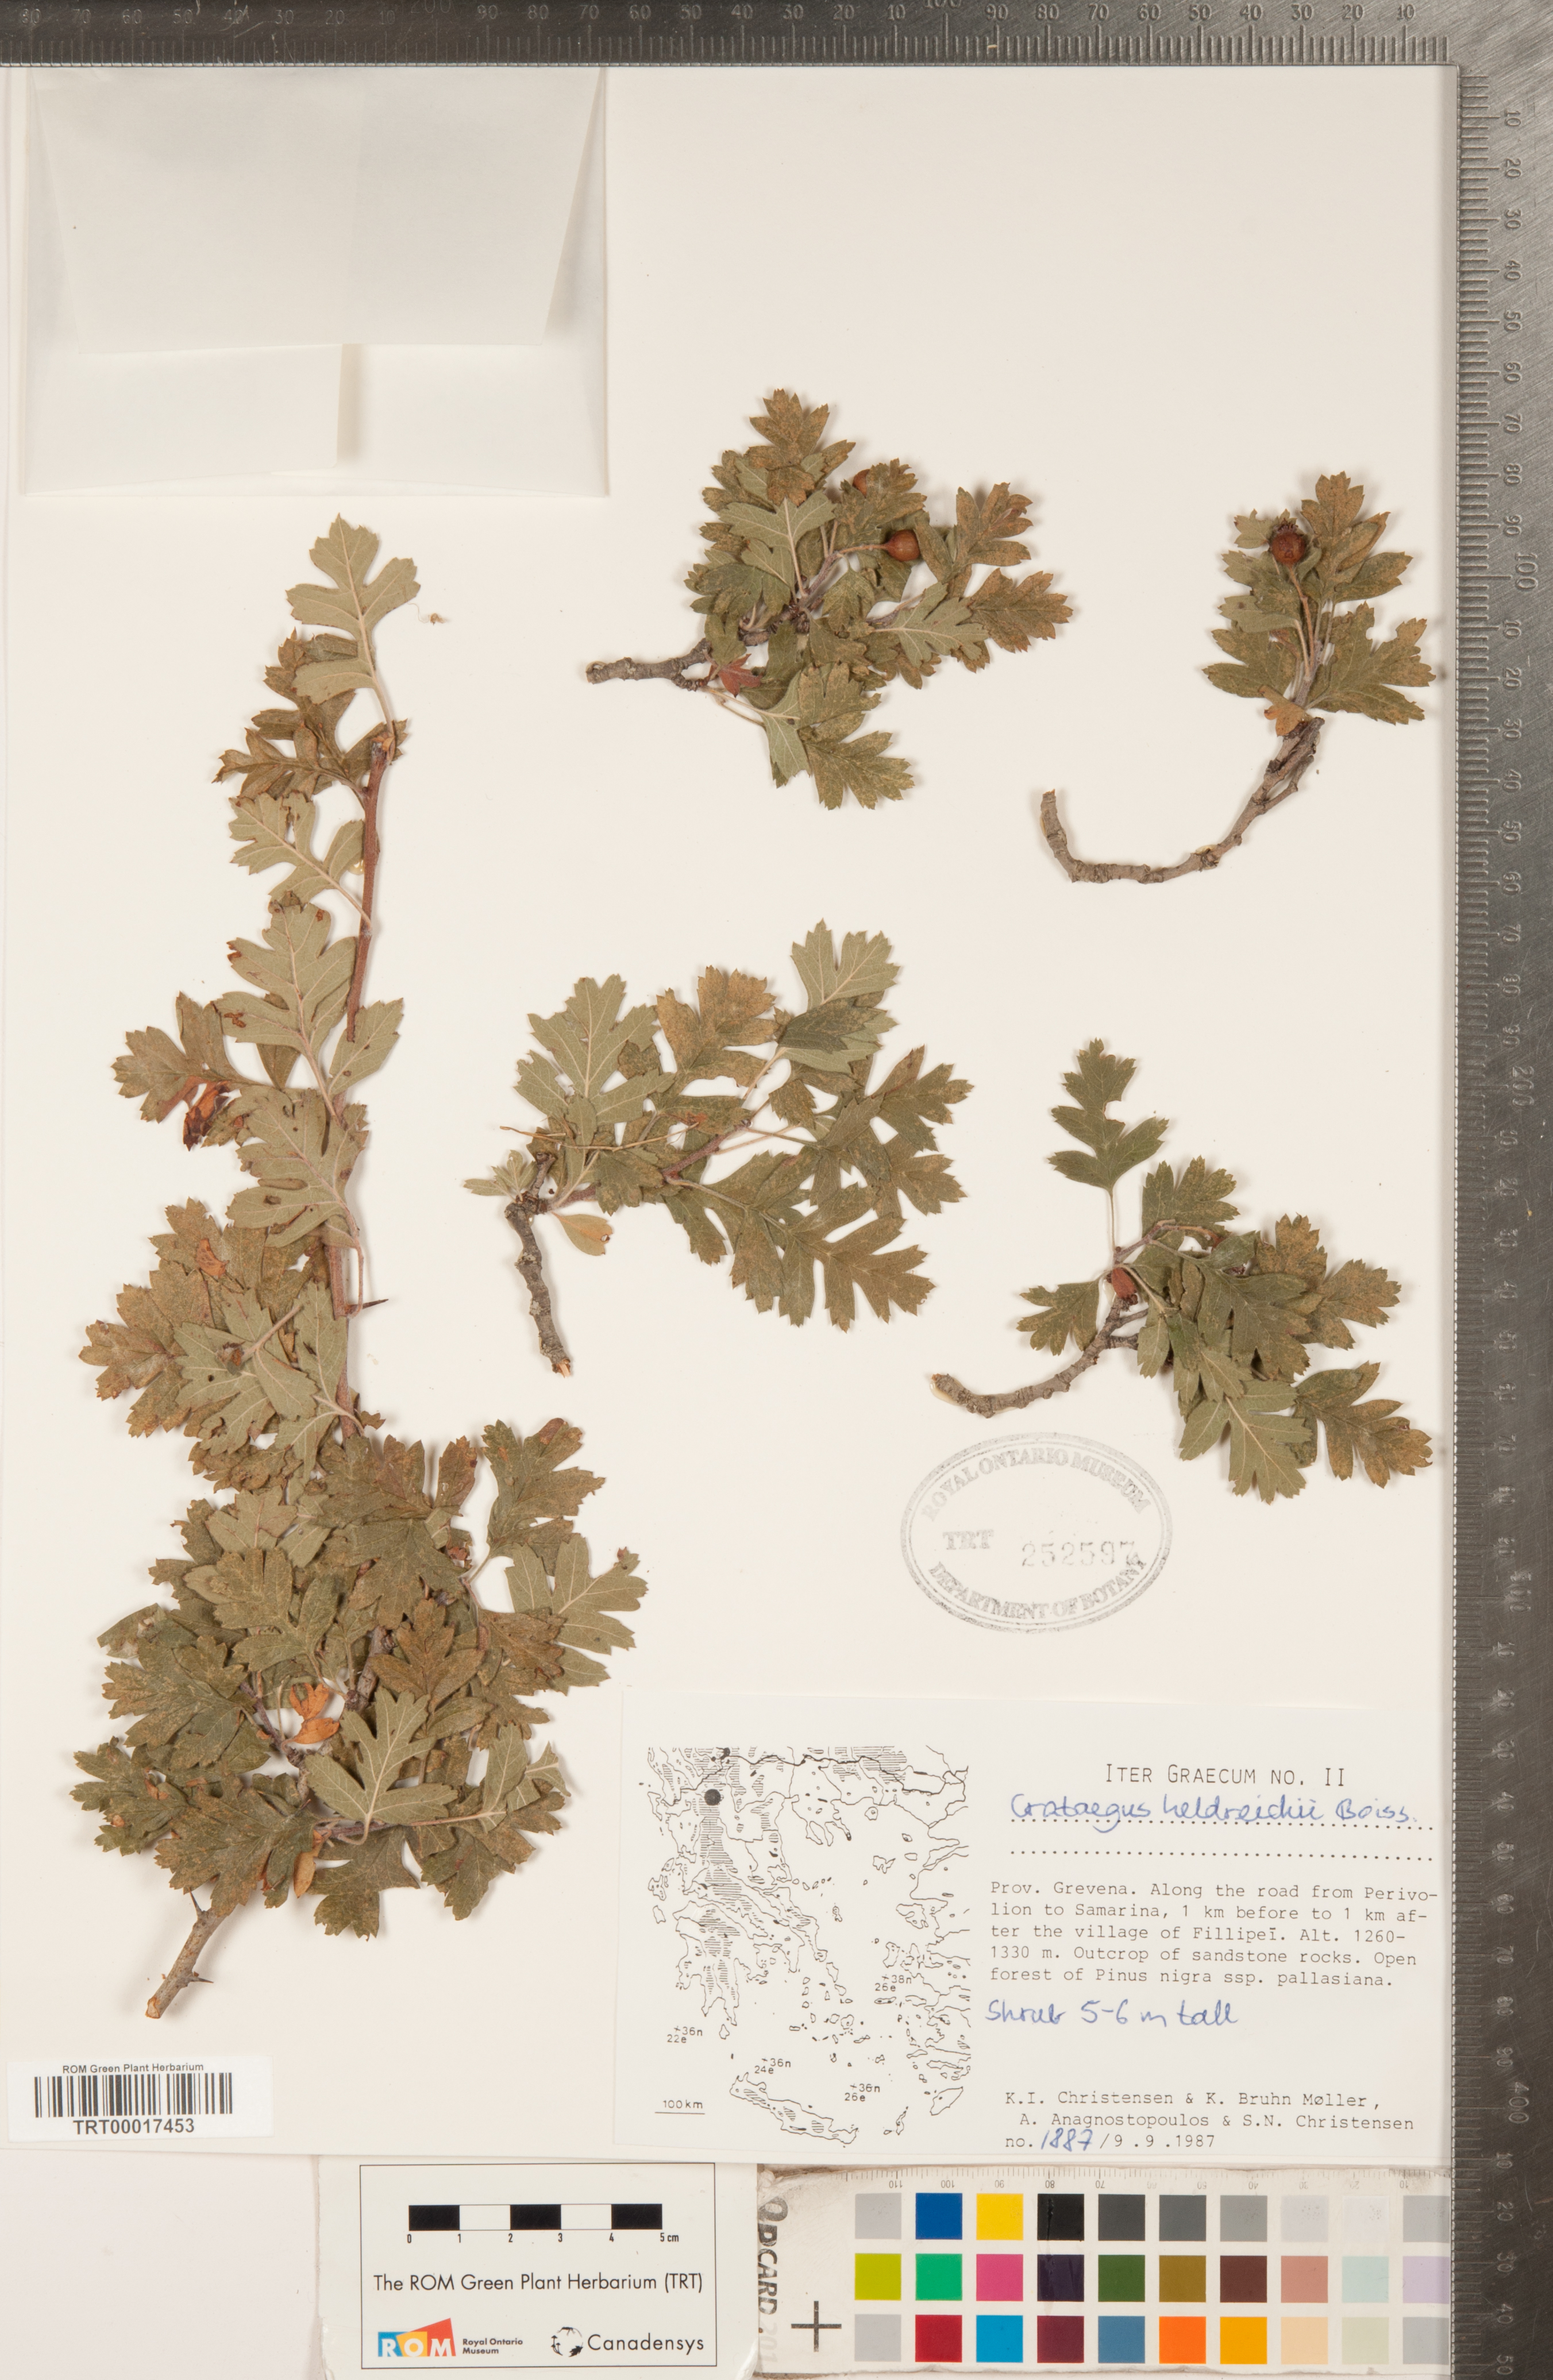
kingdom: Plantae
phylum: Tracheophyta
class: Magnoliopsida
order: Rosales
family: Rosaceae
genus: Crataegus
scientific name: Crataegus heldreichii
